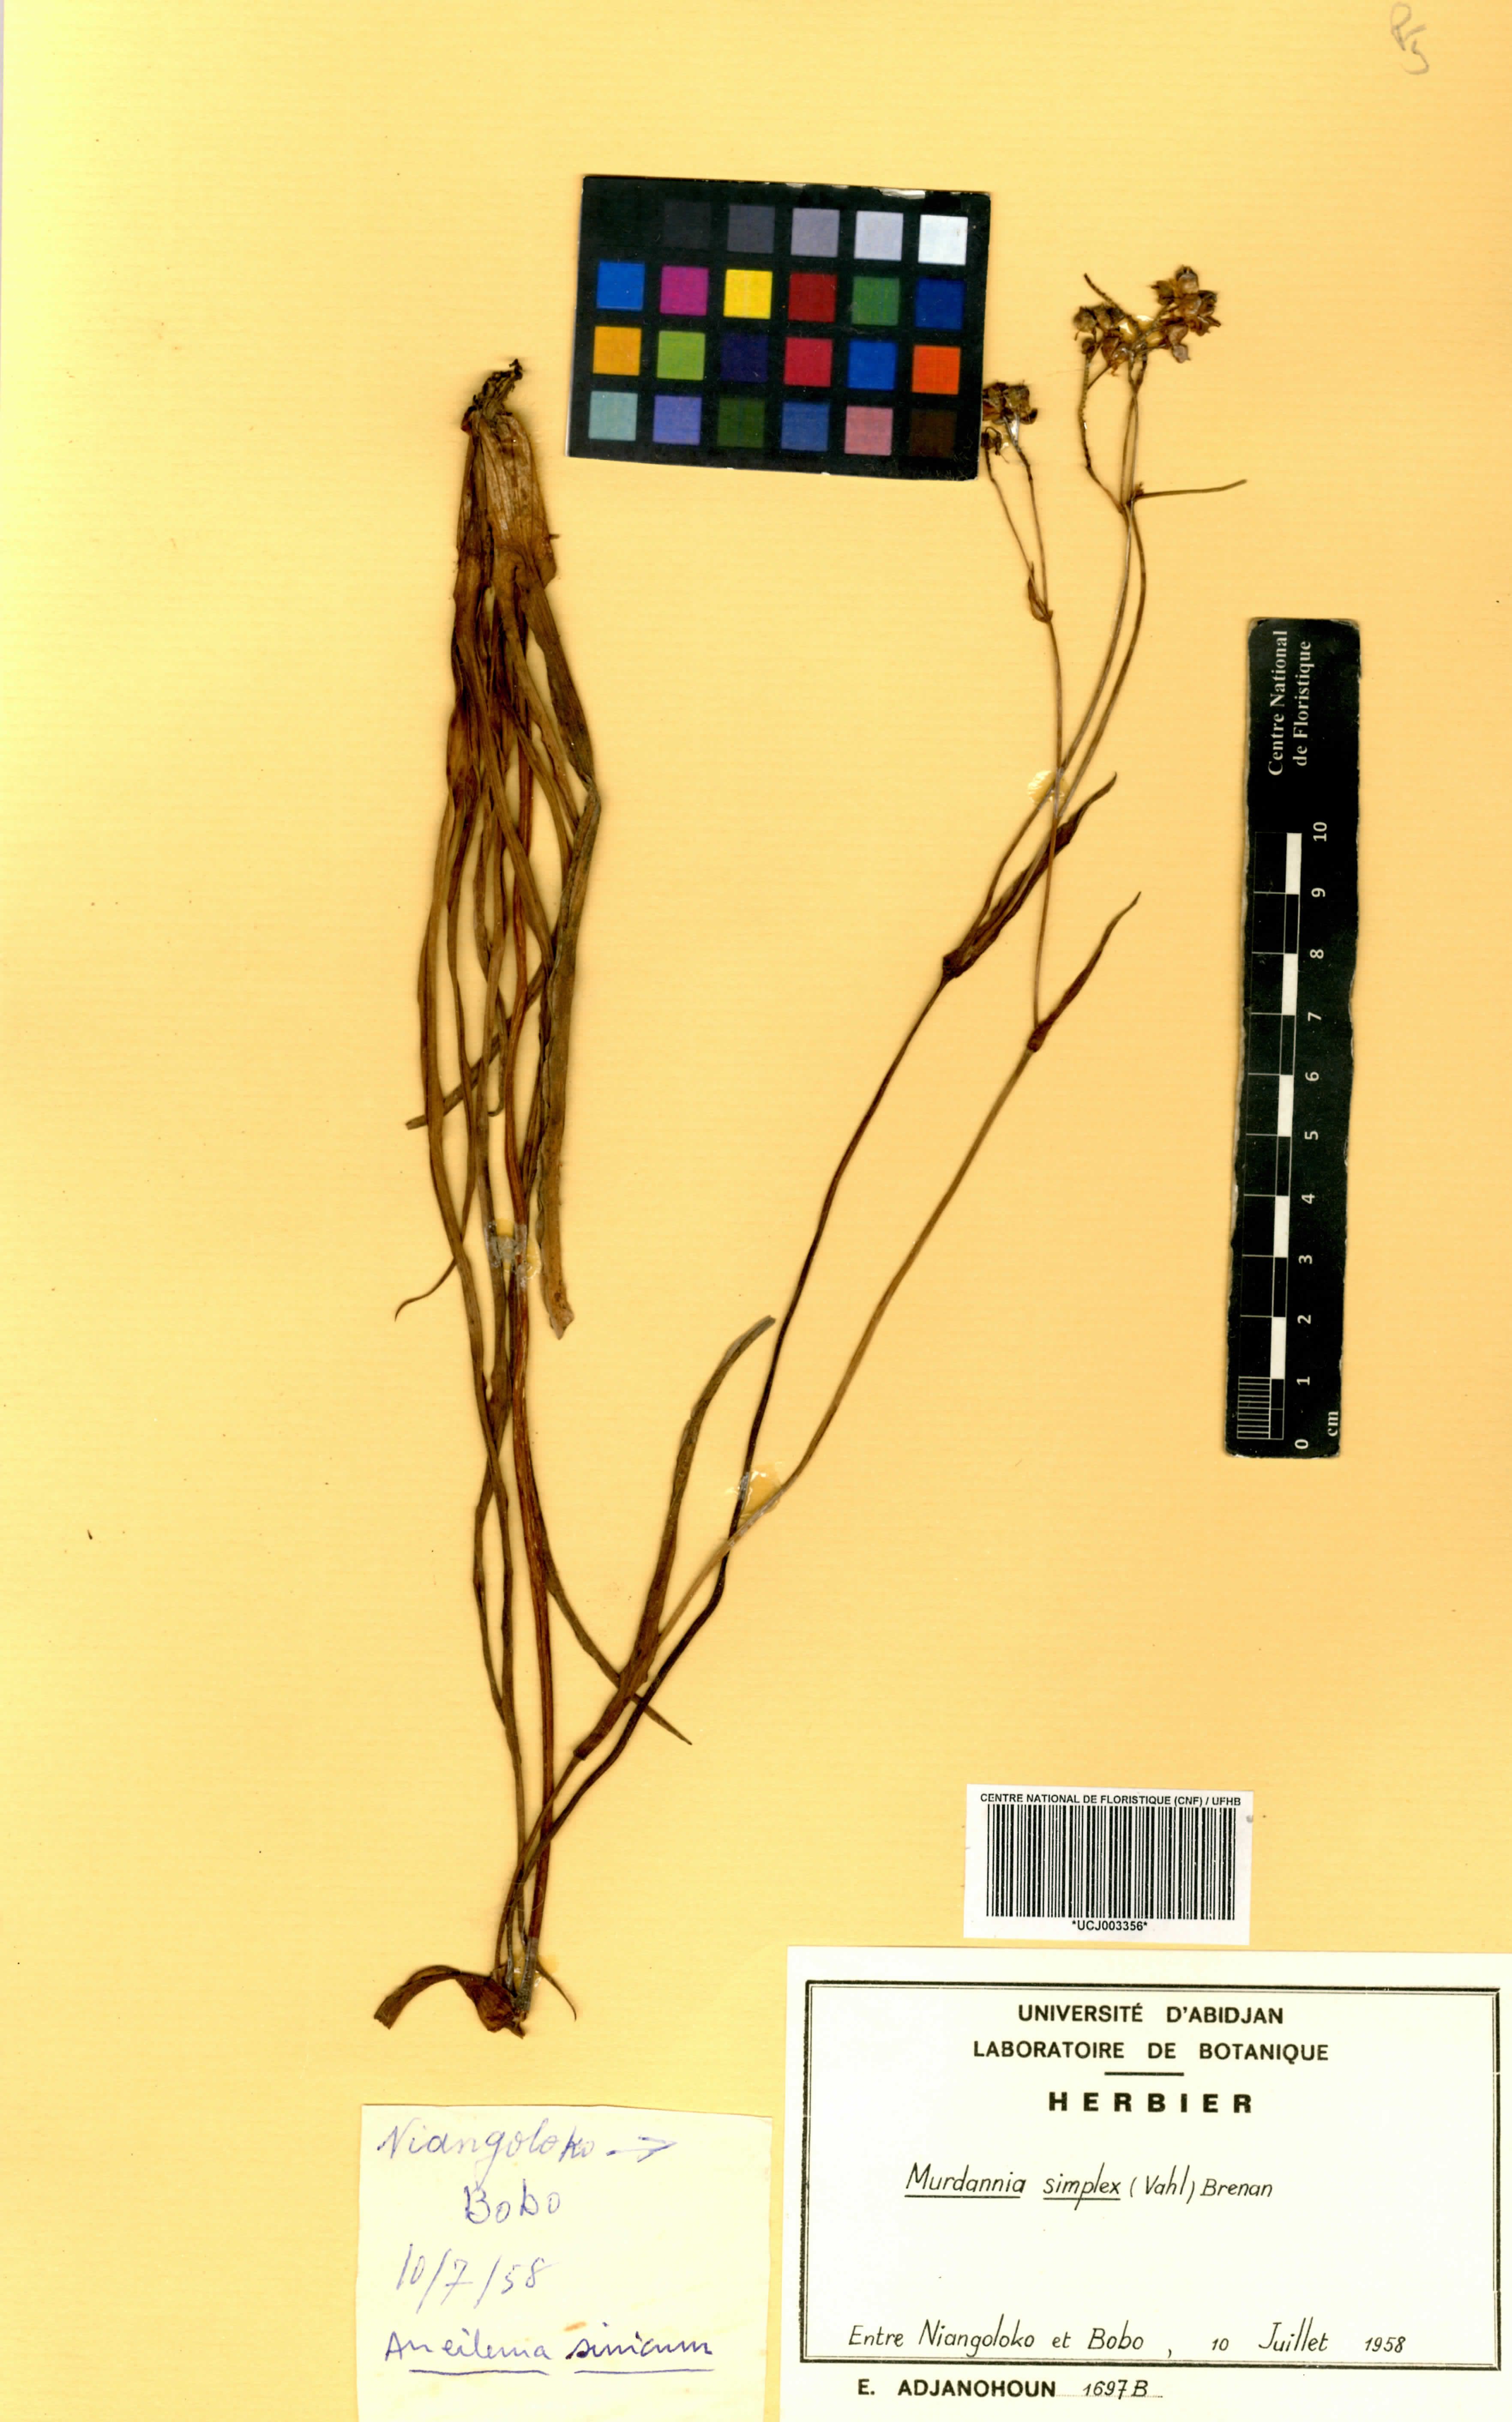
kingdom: Plantae
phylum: Tracheophyta
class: Liliopsida
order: Commelinales
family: Commelinaceae
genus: Murdannia
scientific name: Murdannia simplex
